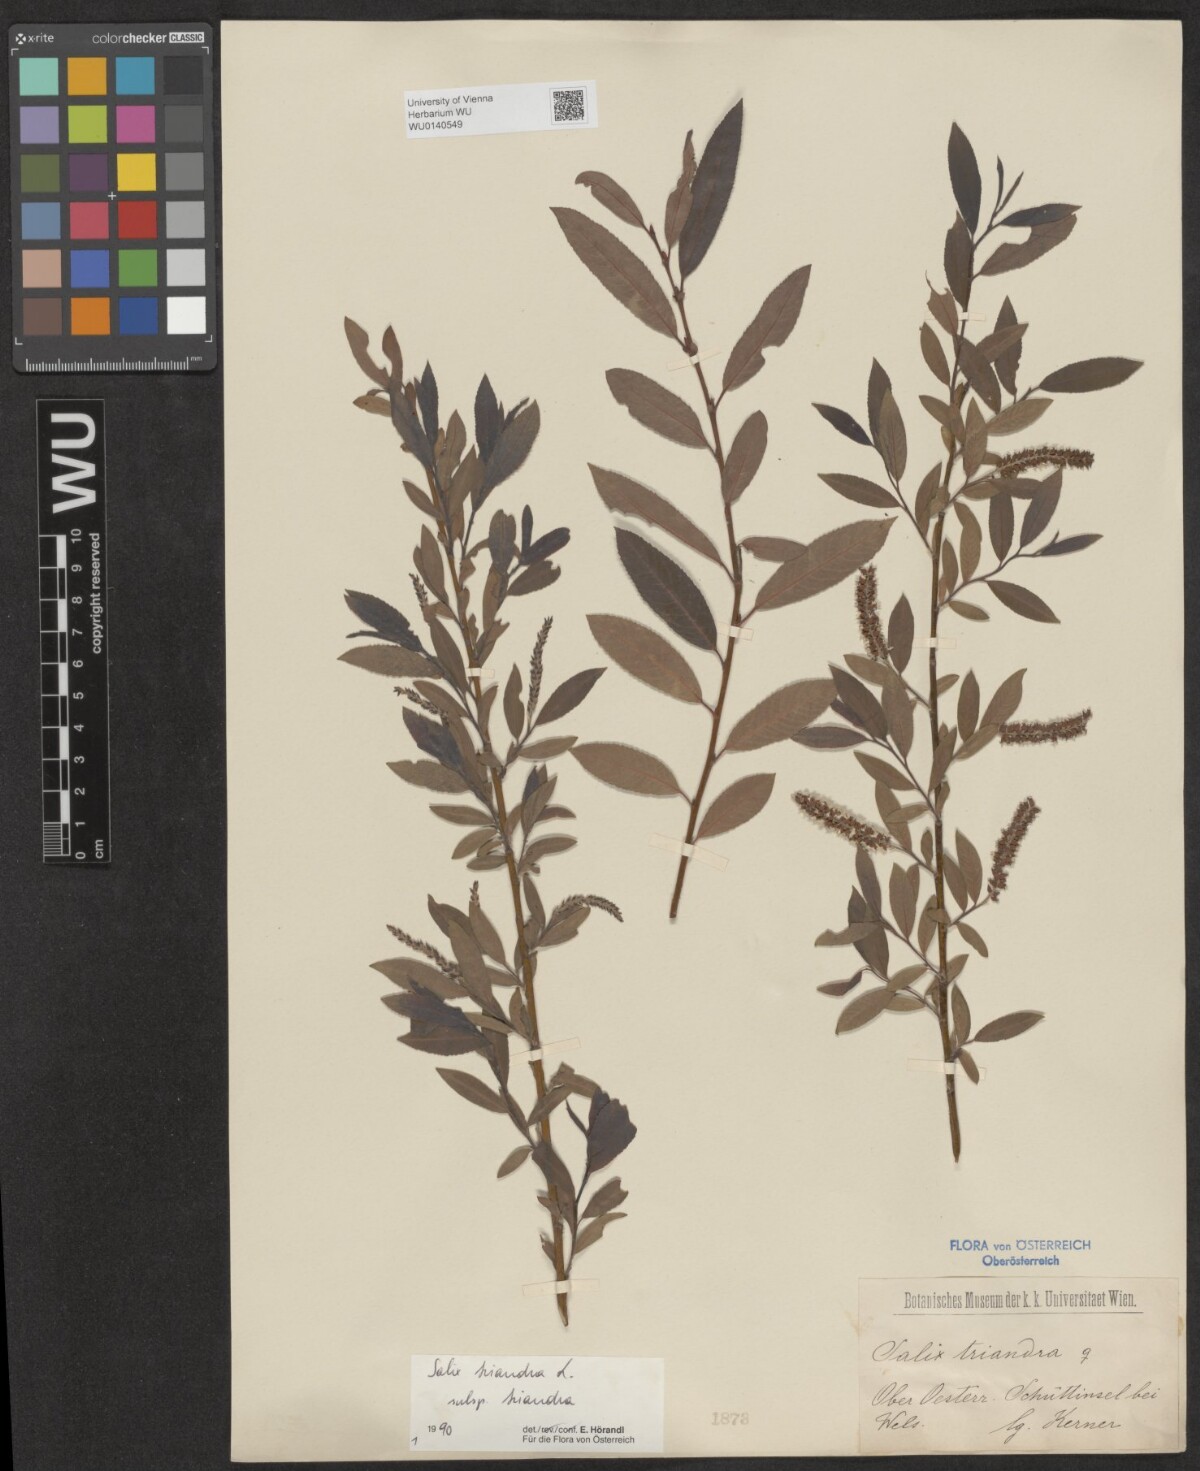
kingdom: Plantae
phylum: Tracheophyta
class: Magnoliopsida
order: Malpighiales
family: Salicaceae
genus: Salix
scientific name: Salix triandra
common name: Almond willow
